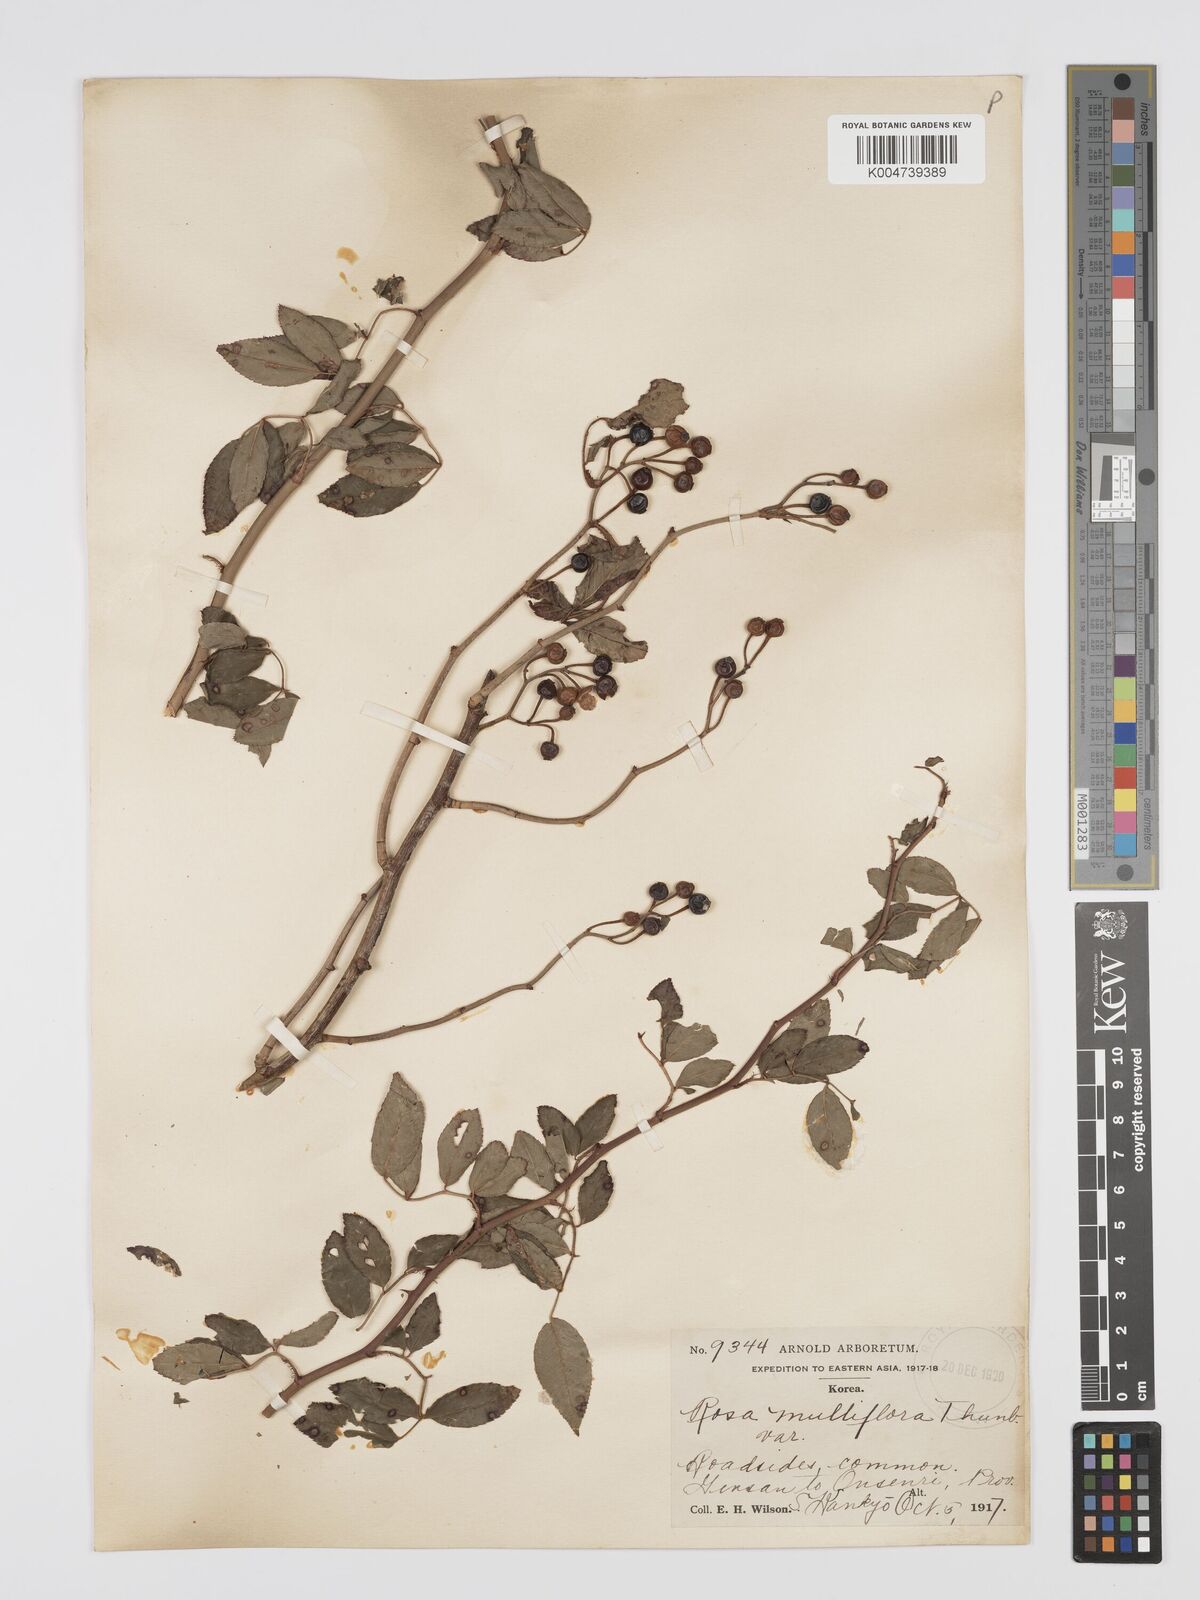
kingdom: Plantae
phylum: Tracheophyta
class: Magnoliopsida
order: Rosales
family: Rosaceae
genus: Rosa
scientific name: Rosa multiflora
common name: Multiflora rose
